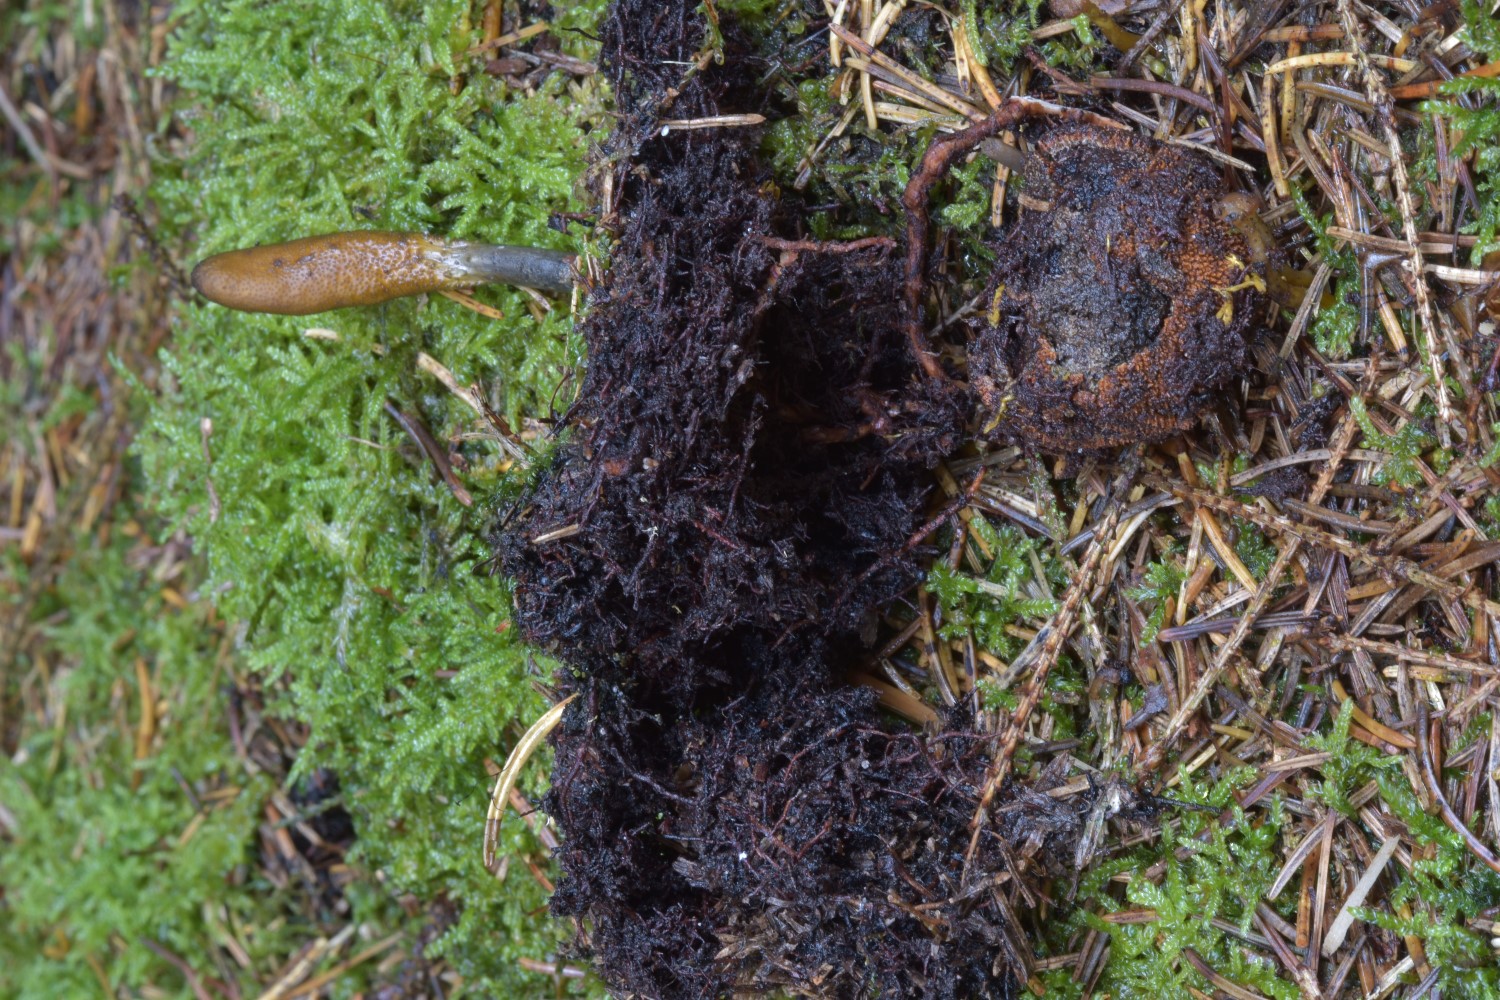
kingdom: Fungi
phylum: Ascomycota
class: Sordariomycetes
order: Hypocreales
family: Ophiocordycipitaceae
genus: Tolypocladium
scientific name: Tolypocladium ophioglossoides
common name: slank snyltekølle
